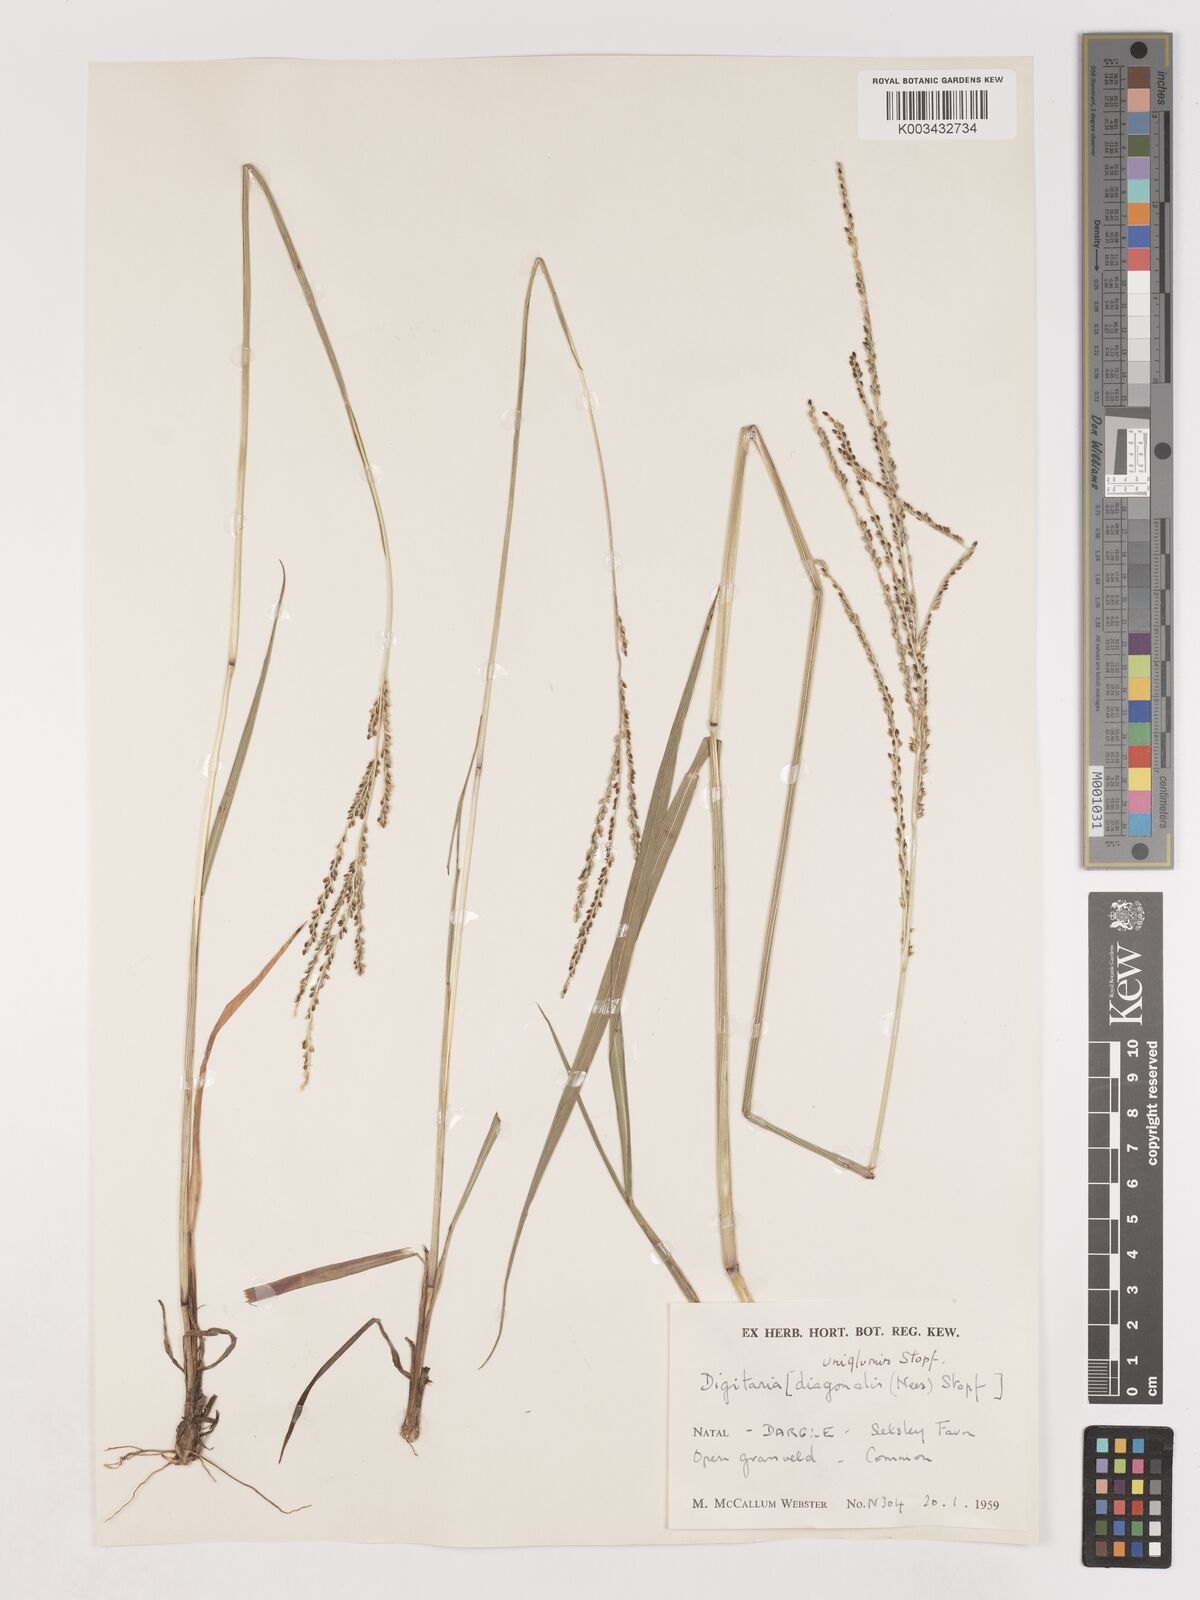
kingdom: Plantae
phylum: Tracheophyta
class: Liliopsida
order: Poales
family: Poaceae
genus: Digitaria
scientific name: Digitaria diagonalis
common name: Brown-seed finger grass
